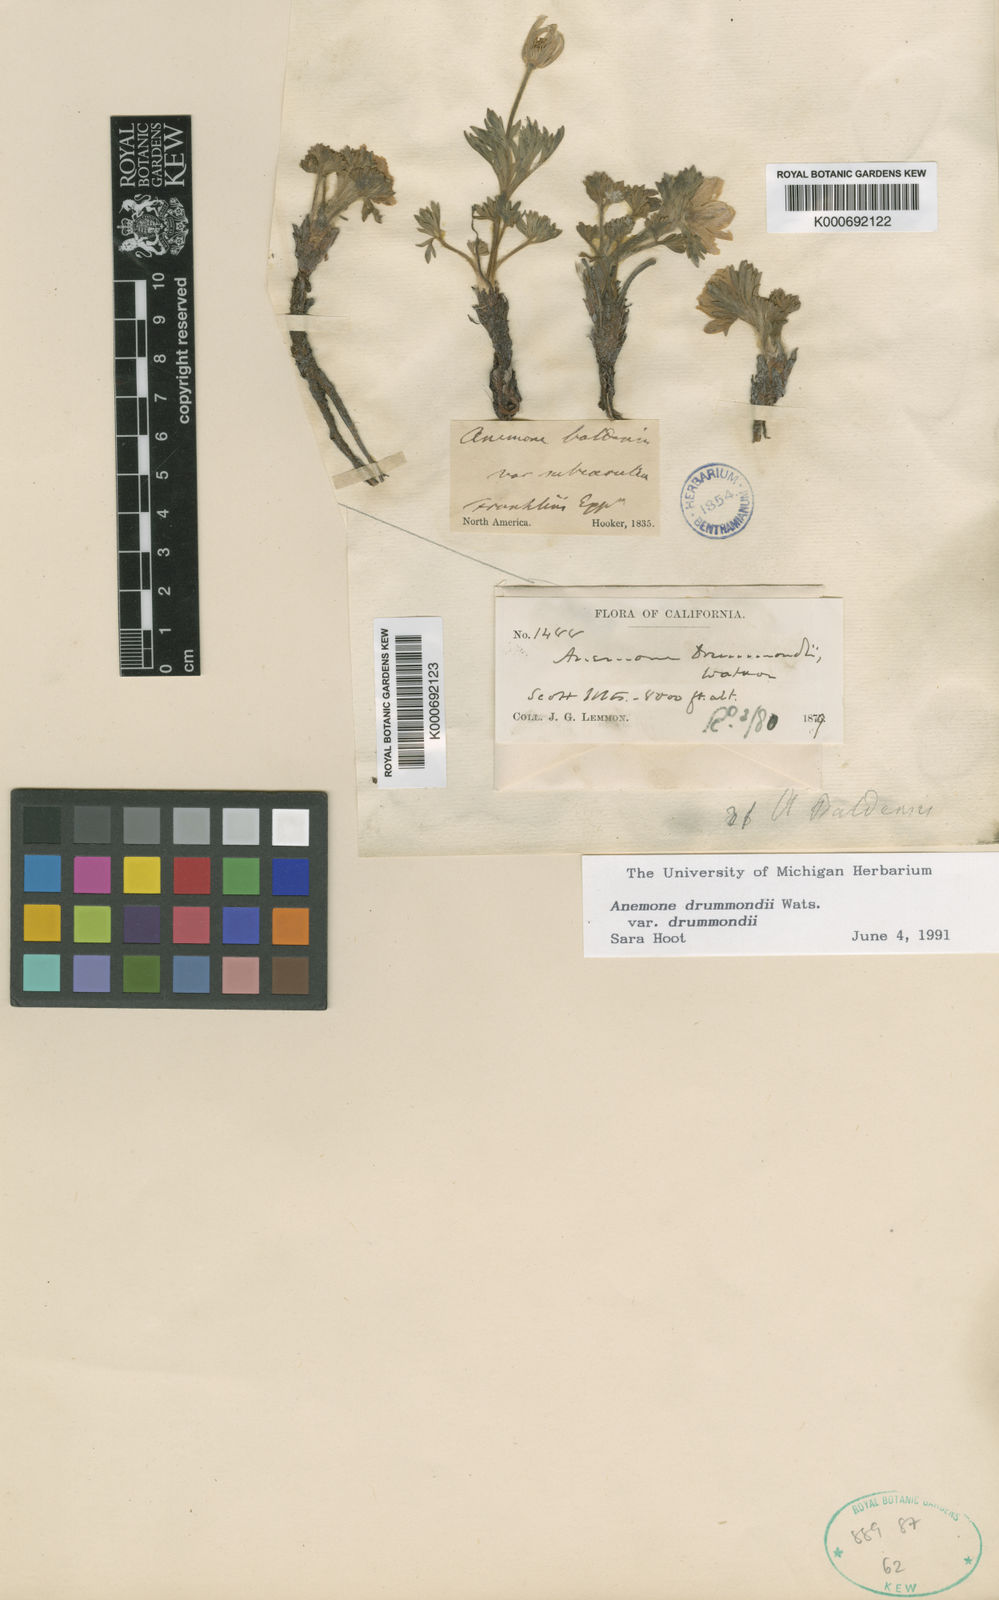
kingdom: Plantae
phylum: Tracheophyta
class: Magnoliopsida
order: Ranunculales
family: Ranunculaceae
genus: Anemone
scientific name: Anemone drummondii
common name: Drummond's anemone
